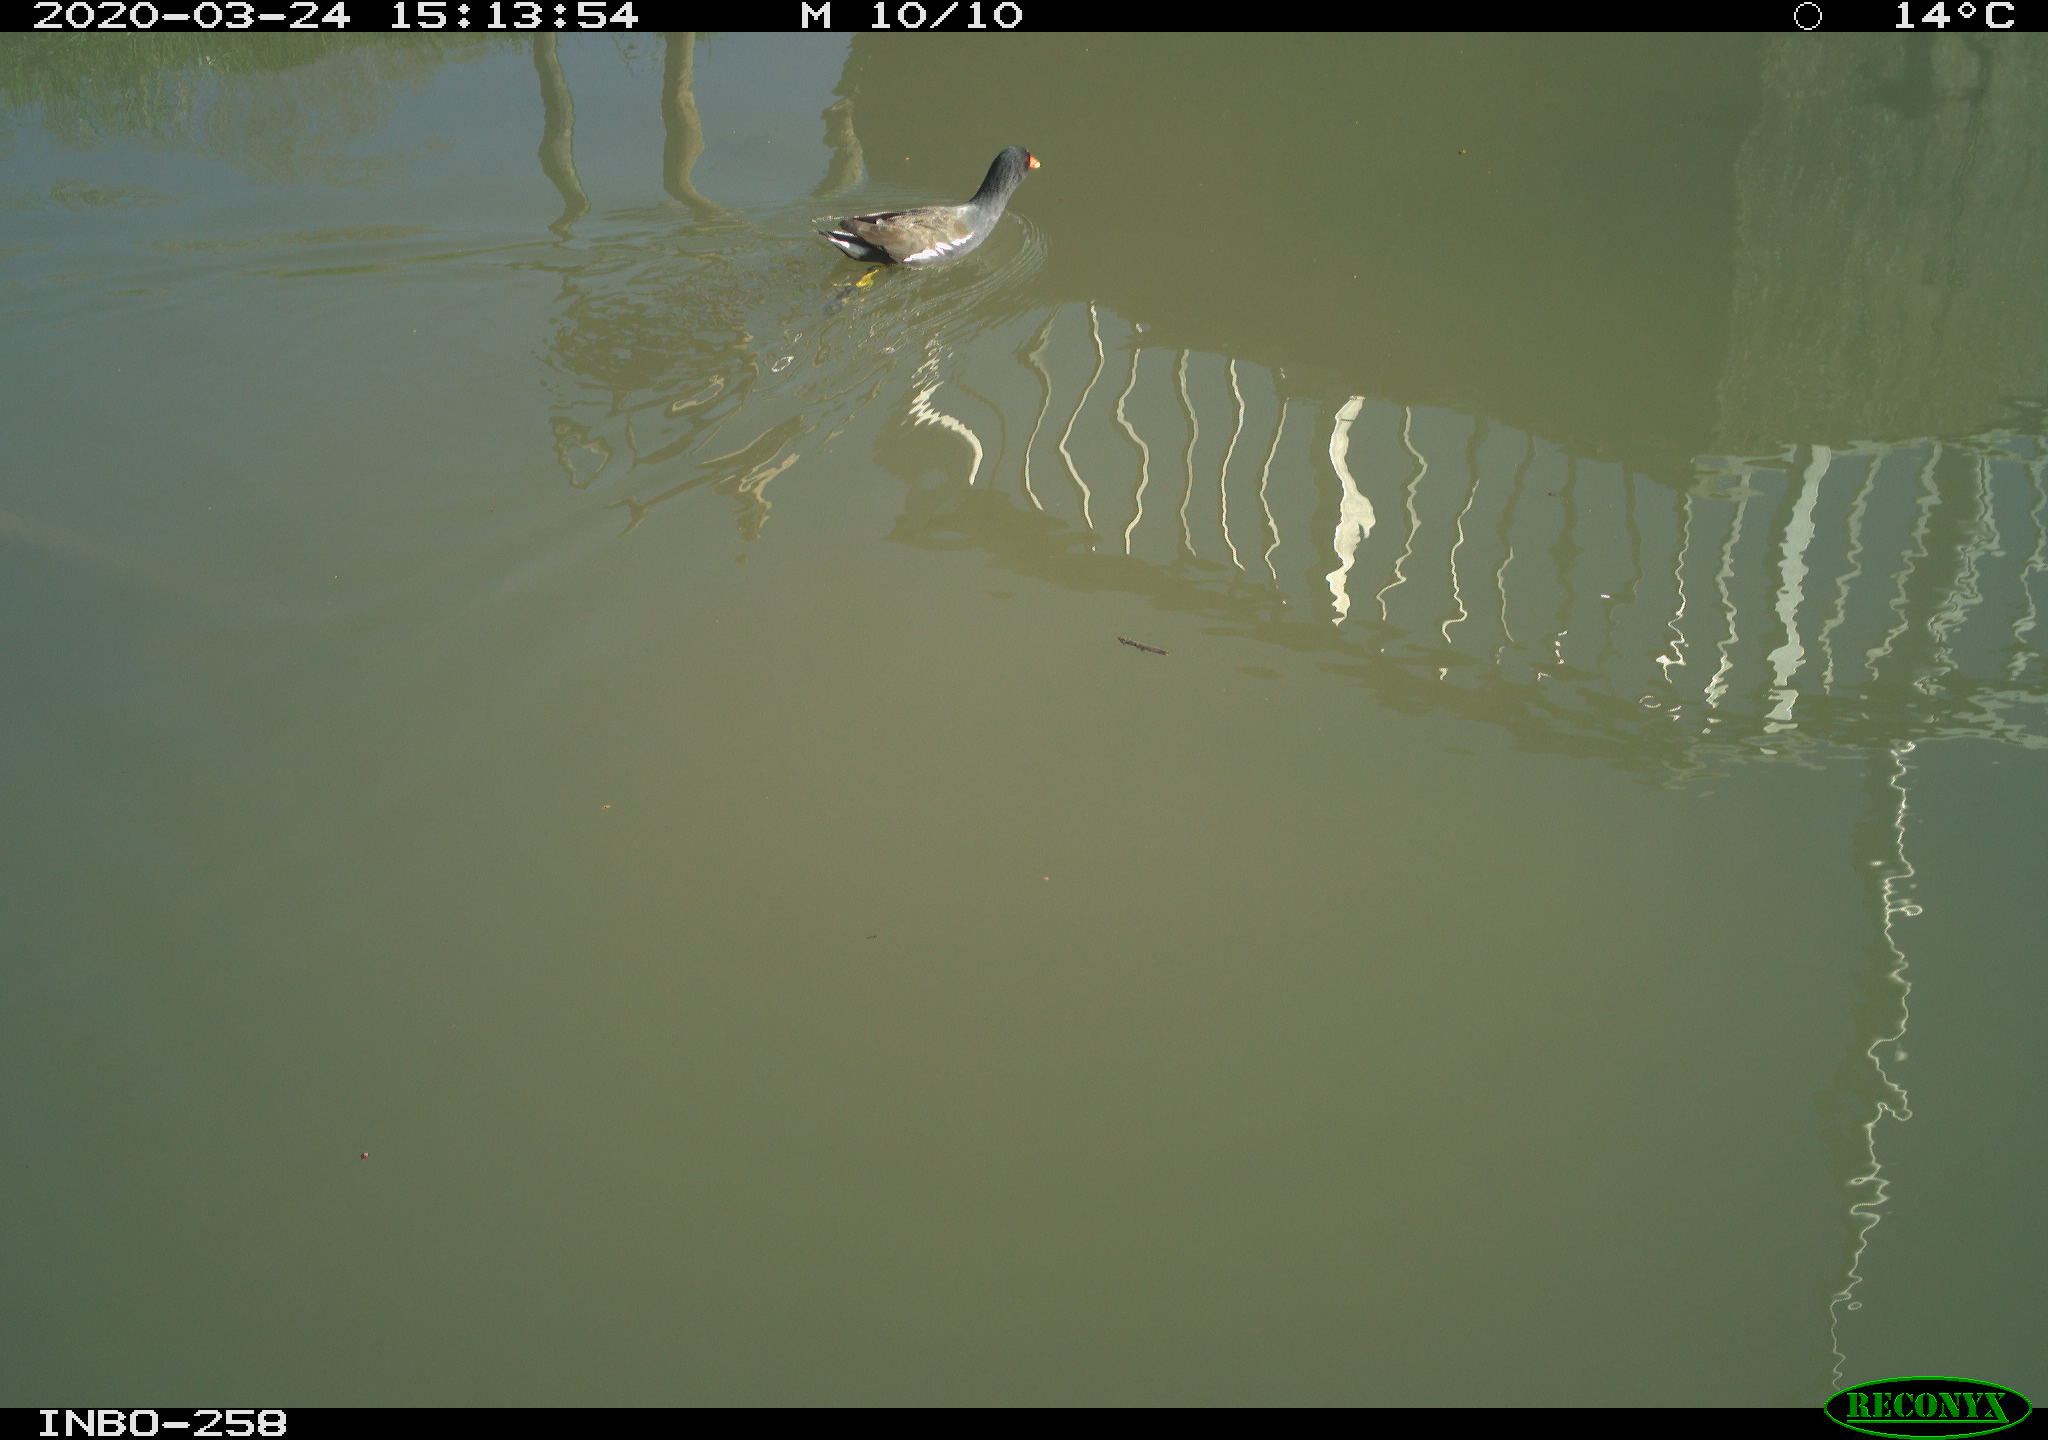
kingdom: Animalia
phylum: Chordata
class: Aves
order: Gruiformes
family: Rallidae
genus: Gallinula
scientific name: Gallinula chloropus
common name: Common moorhen
